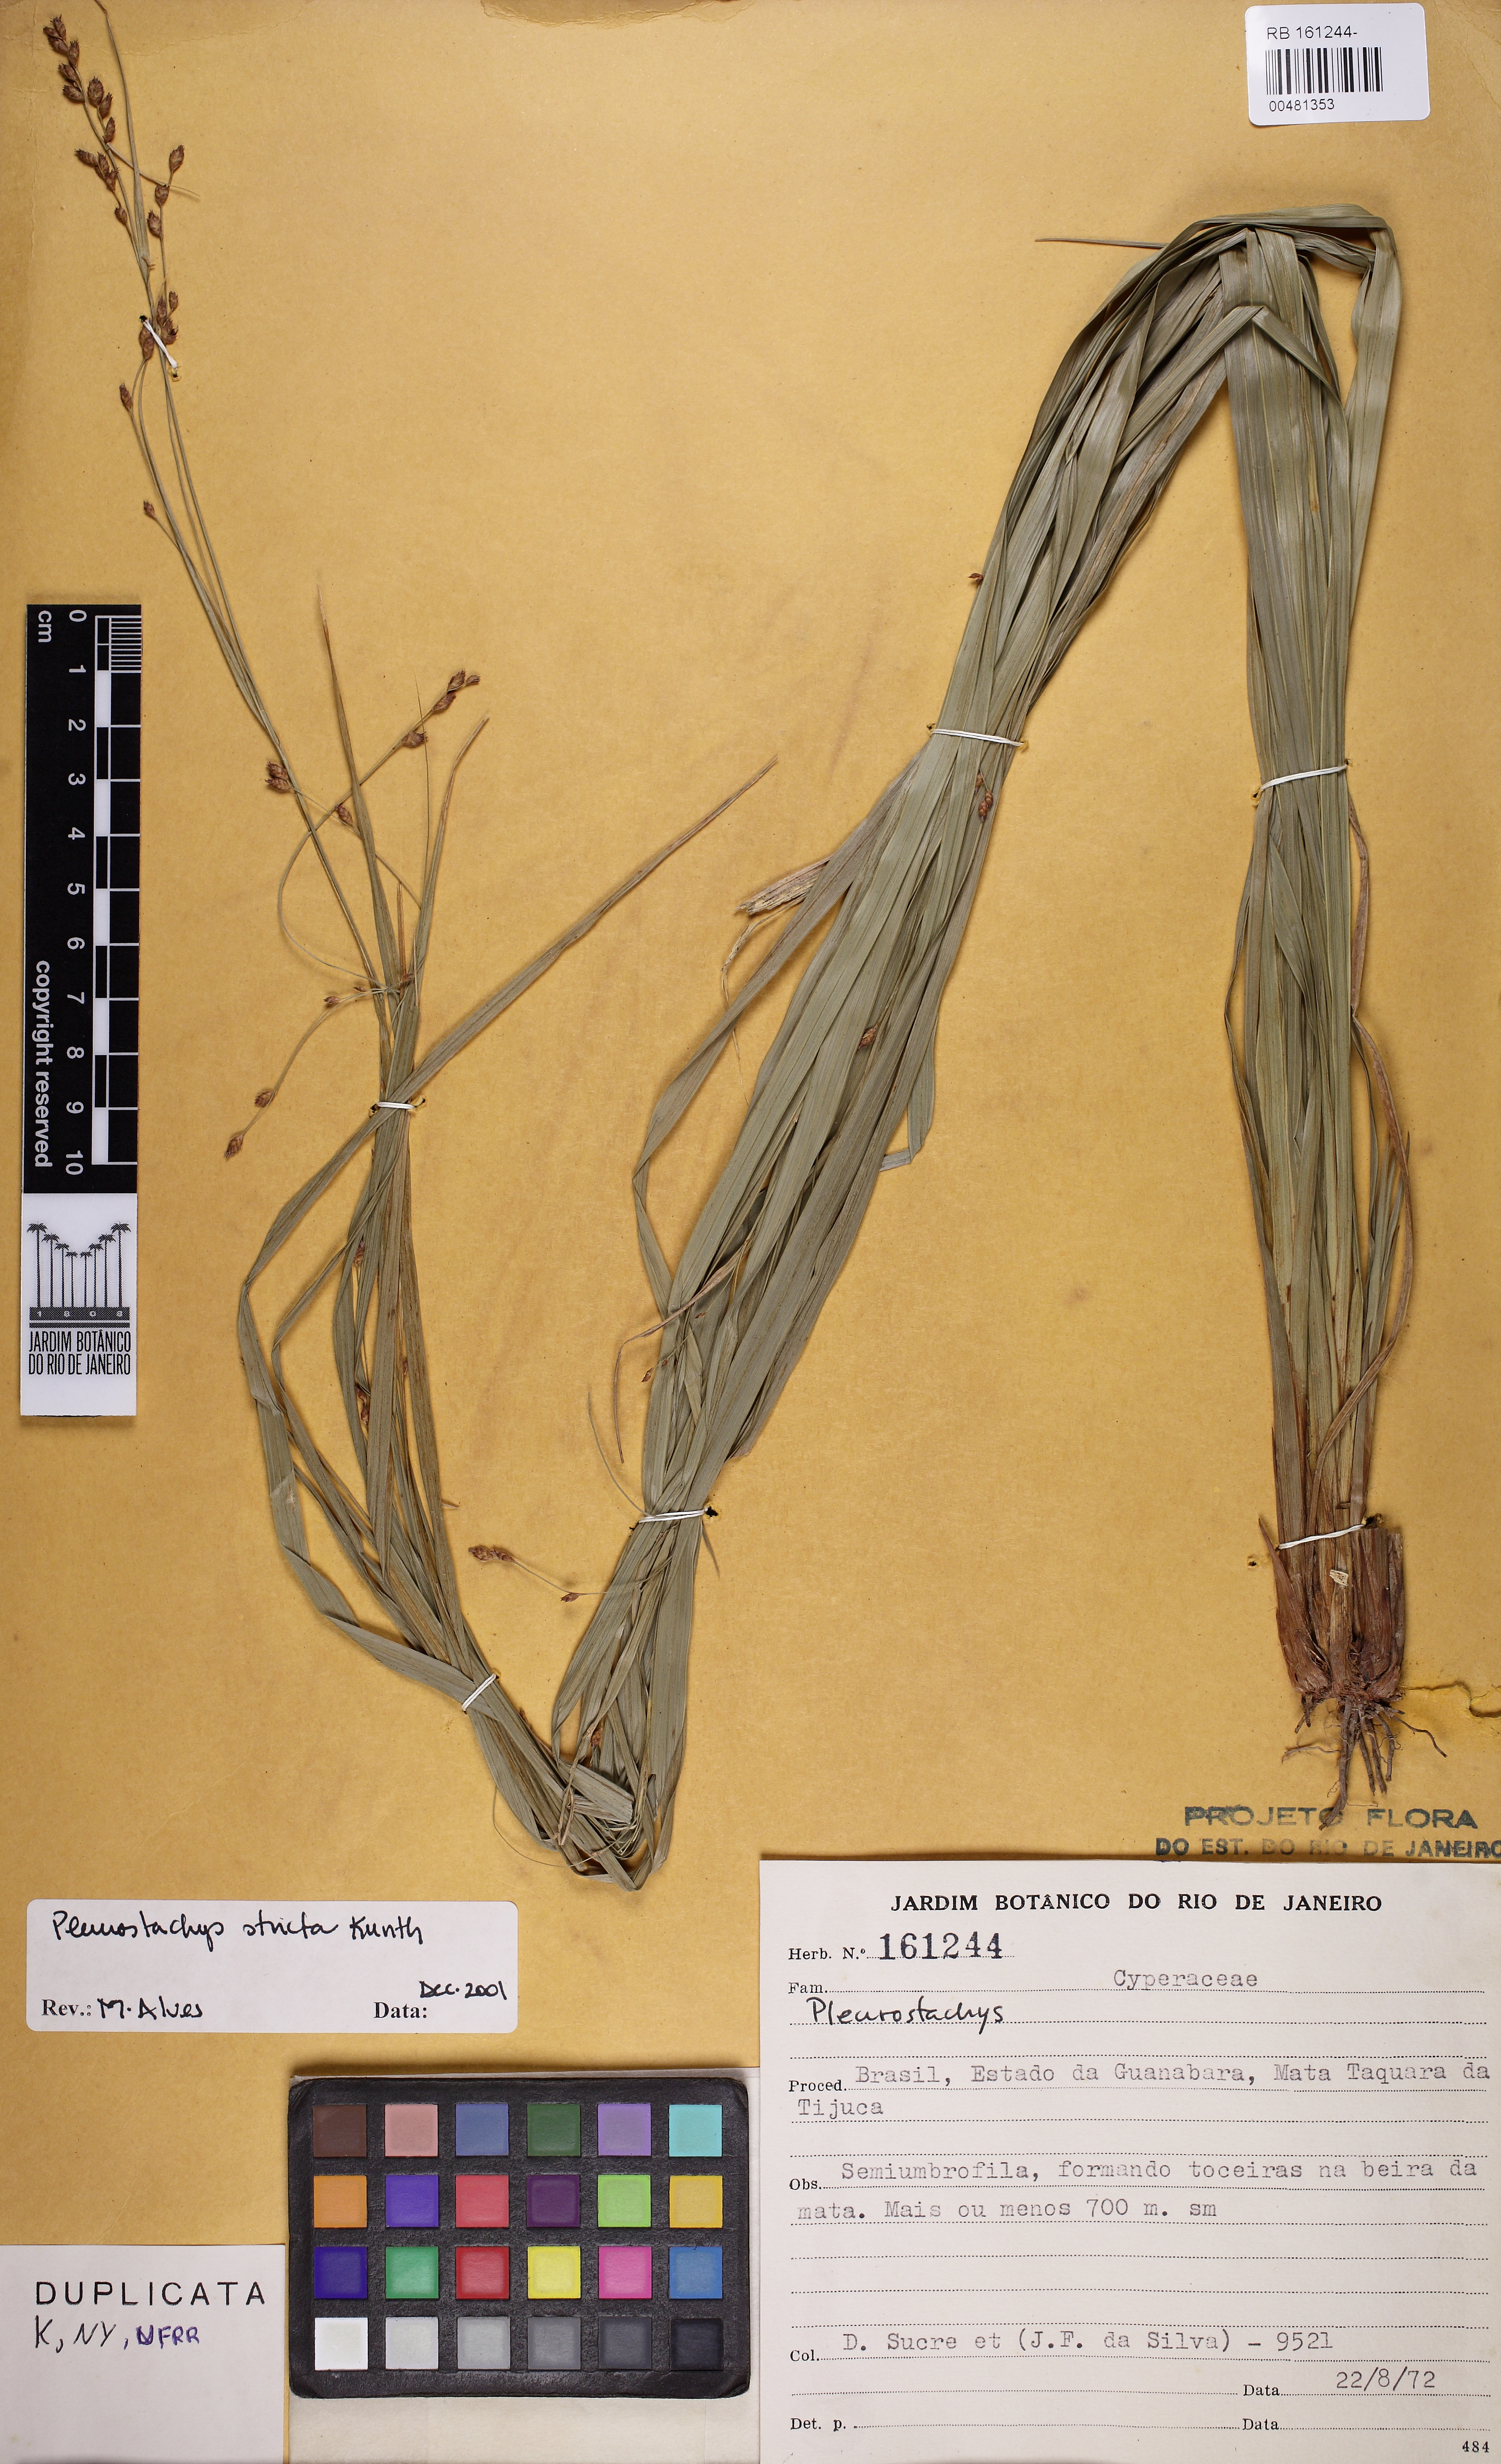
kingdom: Plantae
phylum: Tracheophyta
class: Liliopsida
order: Poales
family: Cyperaceae
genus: Rhynchospora
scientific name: Rhynchospora Pleurostachys muelleri
